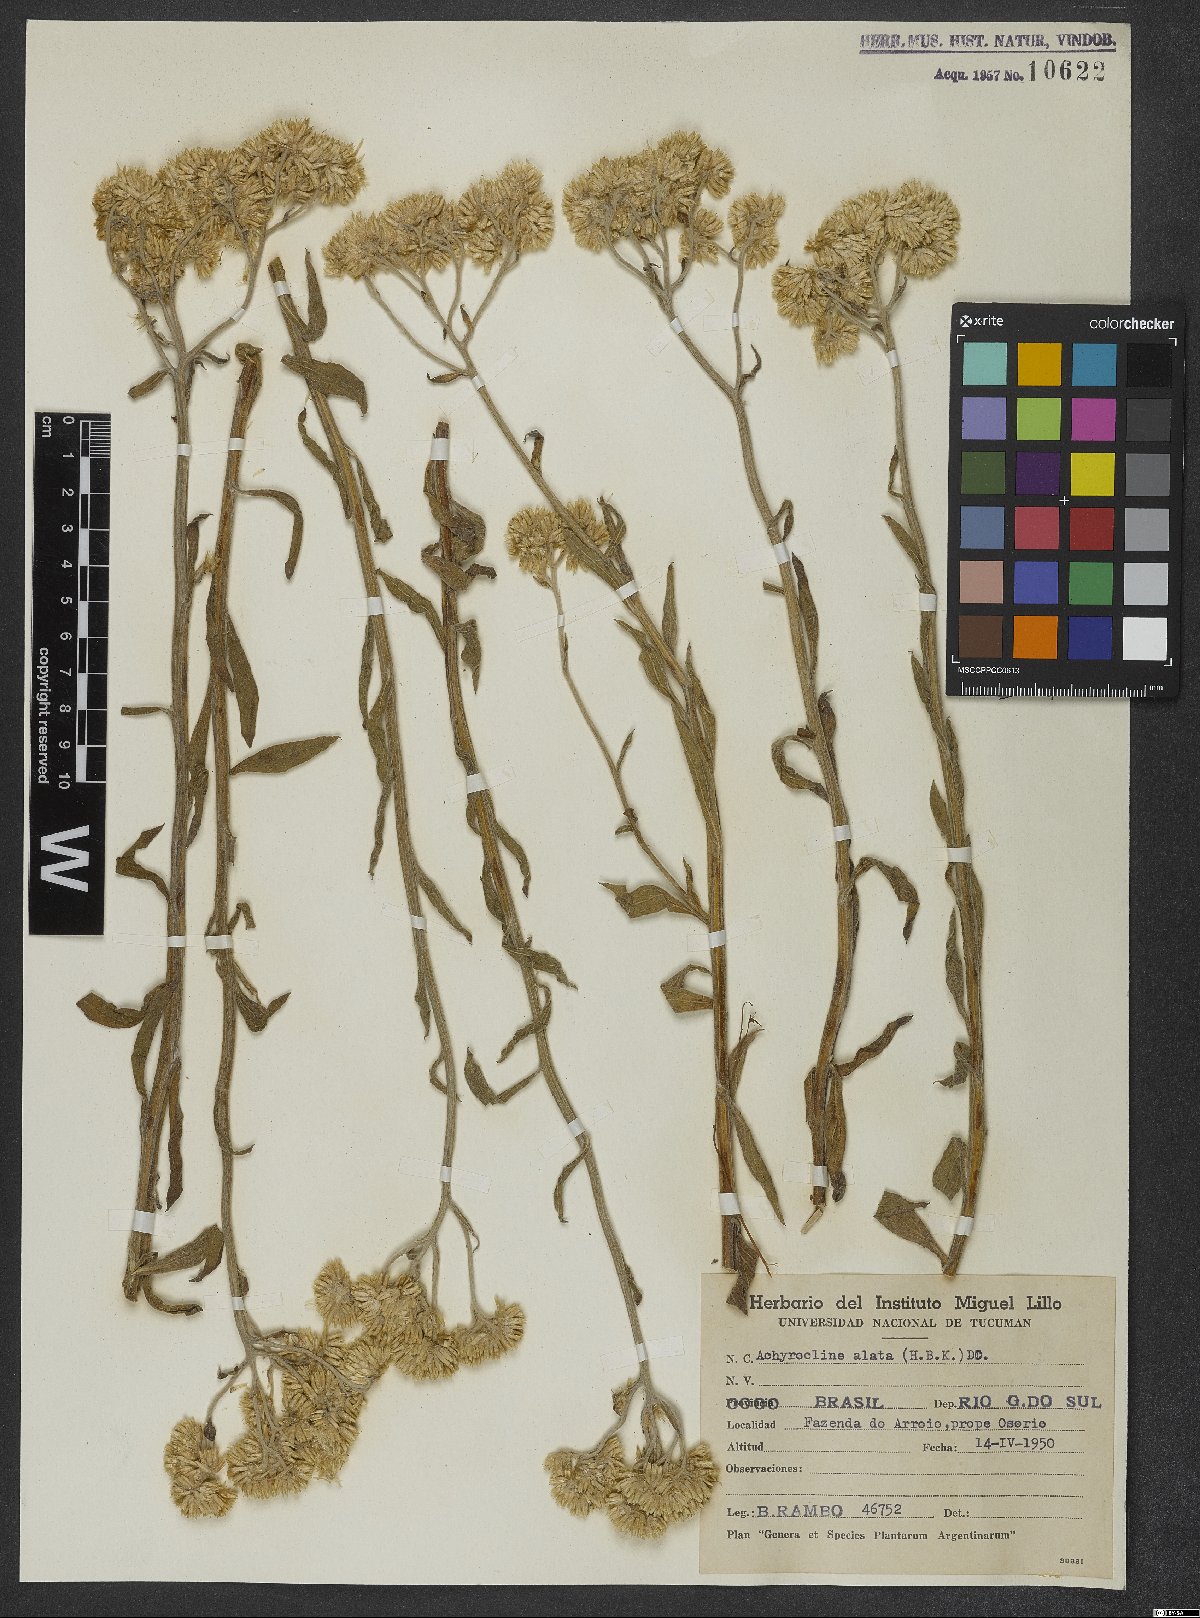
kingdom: Plantae
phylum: Tracheophyta
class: Magnoliopsida
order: Asterales
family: Asteraceae
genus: Achyrocline
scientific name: Achyrocline alata
